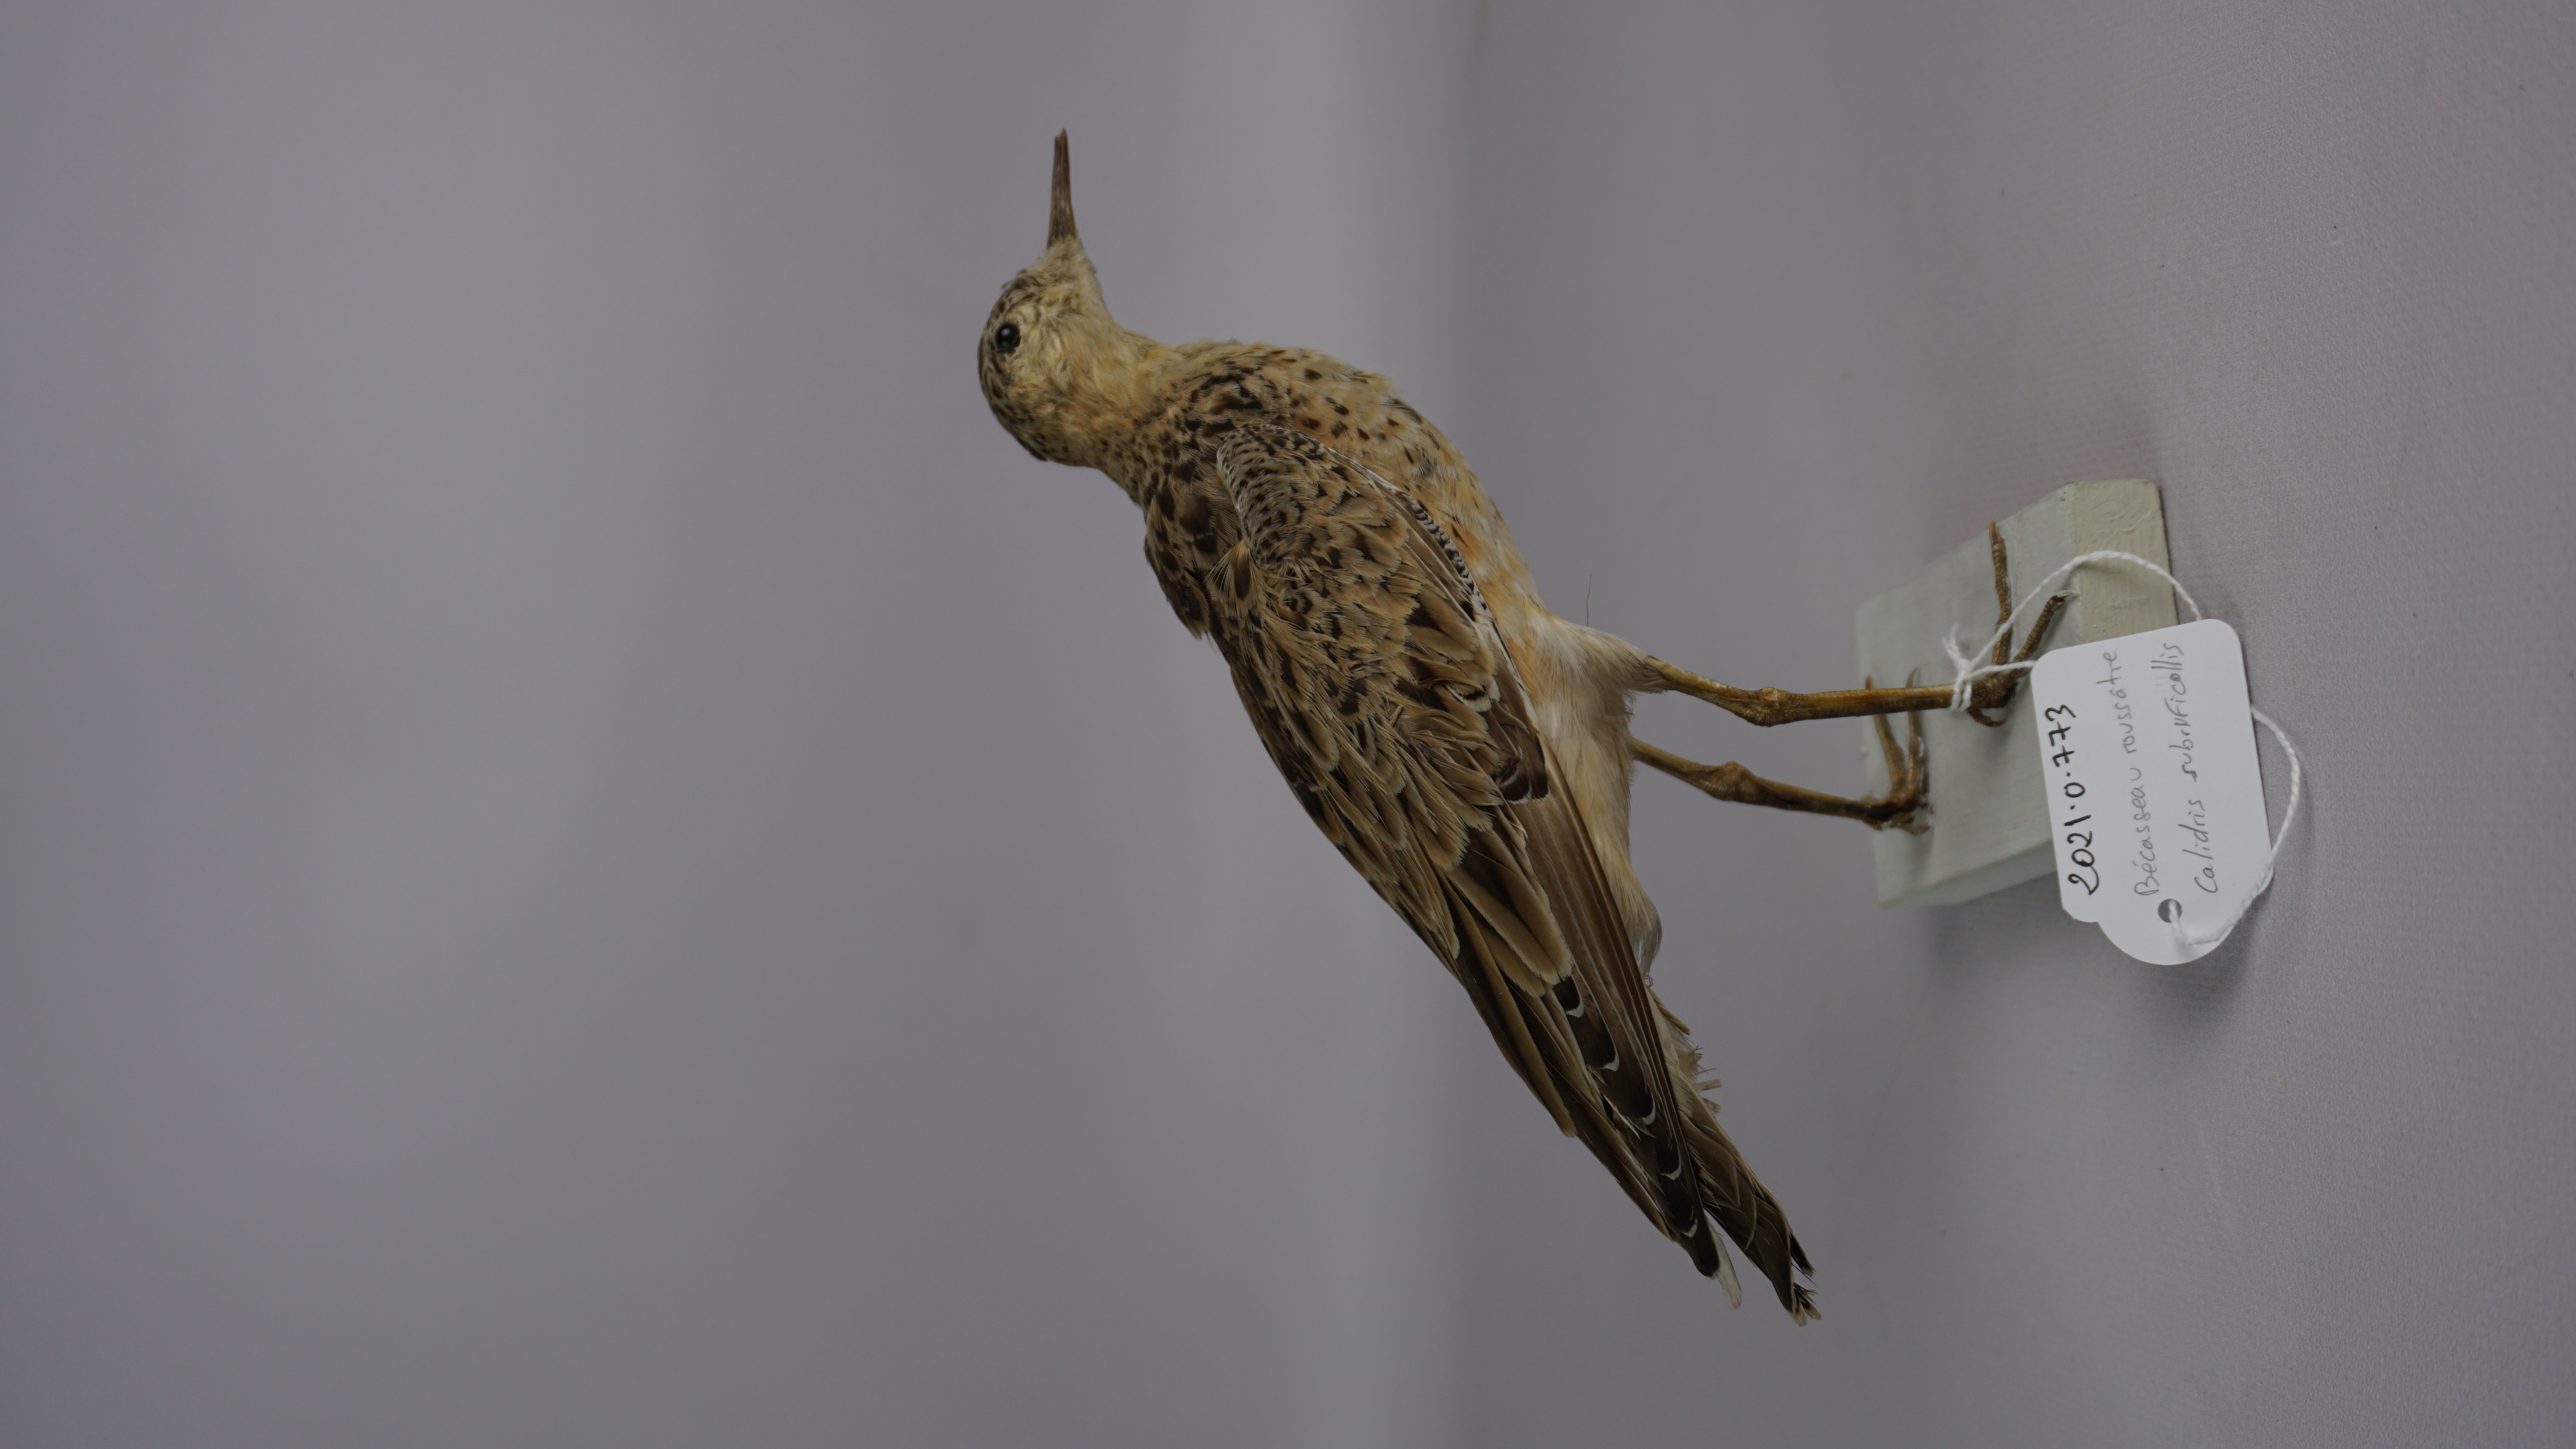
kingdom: Animalia
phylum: Chordata
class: Aves
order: Charadriiformes
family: Scolopacidae
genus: Calidris
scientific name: Calidris subruficollis
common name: Buff-breasted sandpiper
